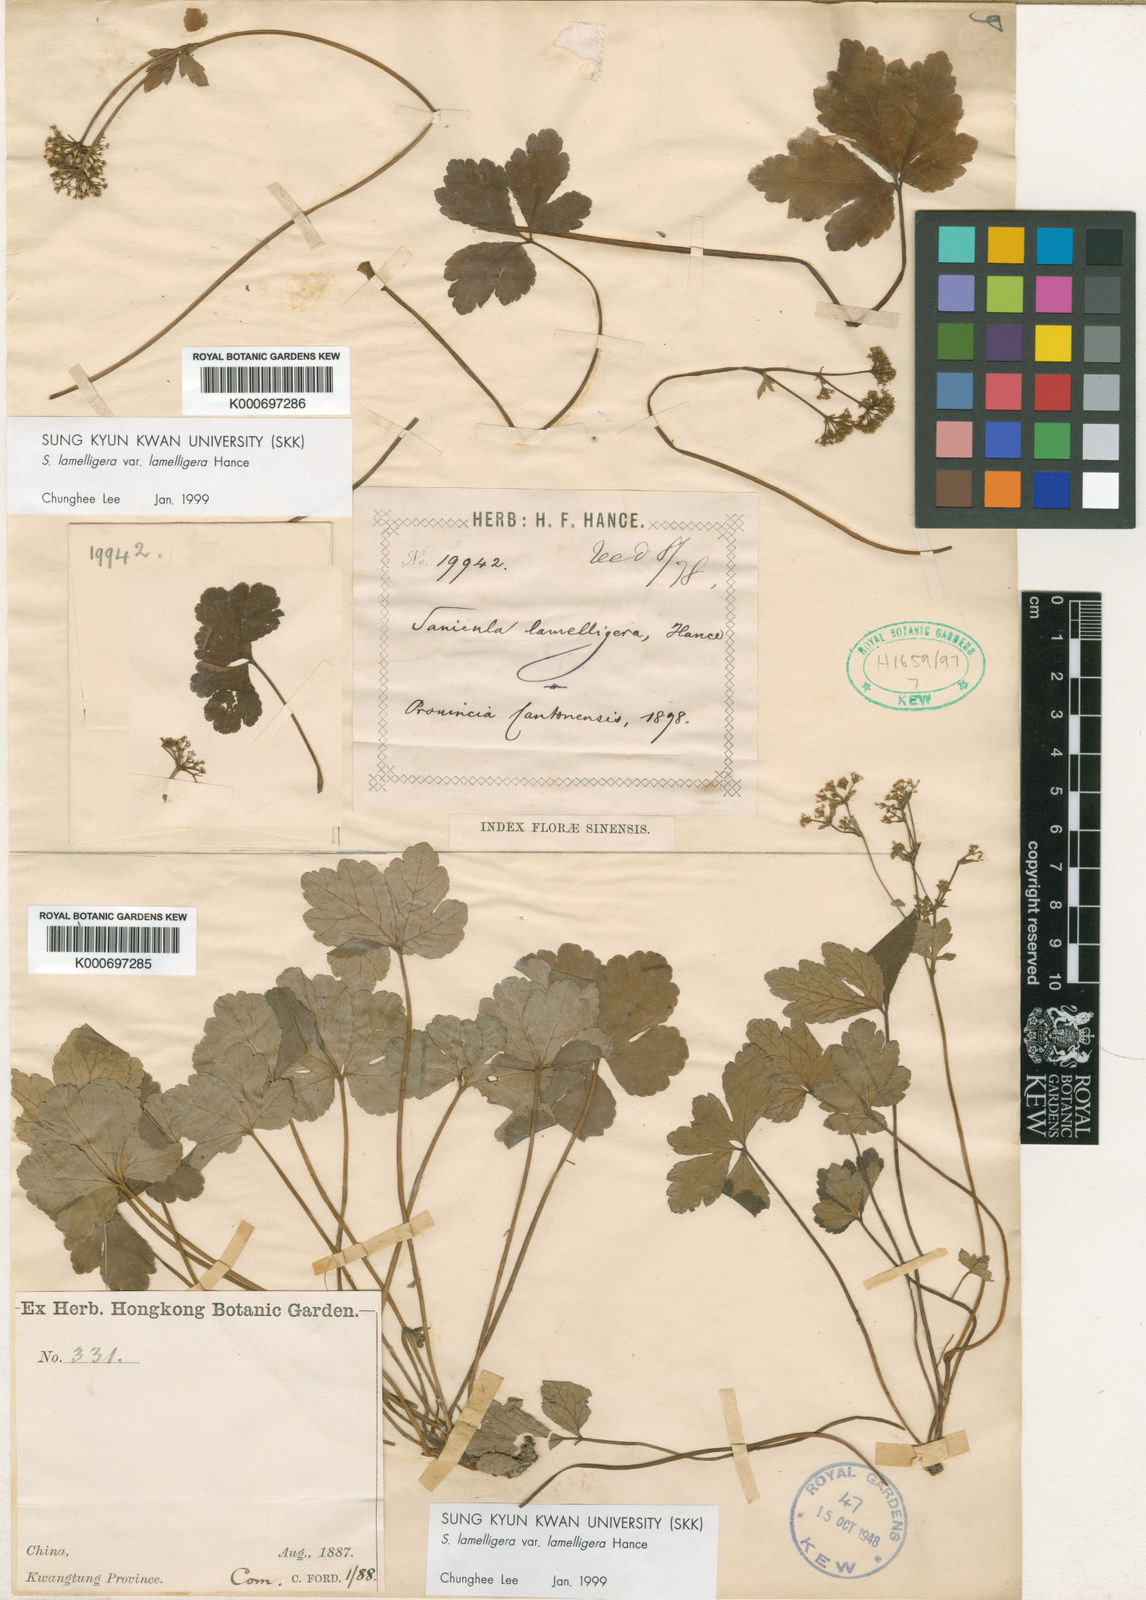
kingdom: Plantae
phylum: Tracheophyta
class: Magnoliopsida
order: Apiales
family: Apiaceae
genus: Sanicula
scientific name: Sanicula lamelligera
